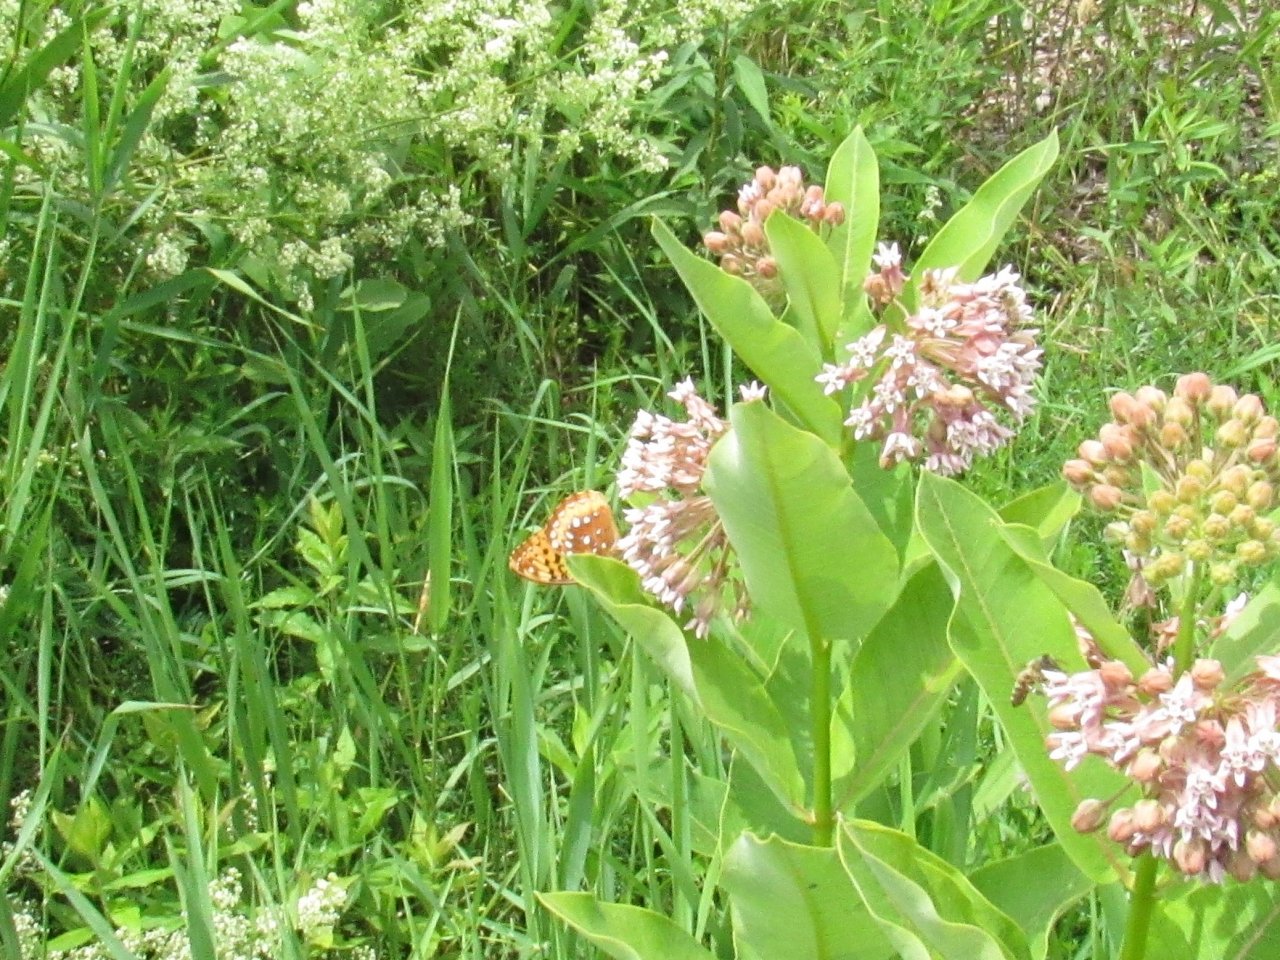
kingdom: Animalia
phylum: Arthropoda
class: Insecta
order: Lepidoptera
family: Nymphalidae
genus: Speyeria
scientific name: Speyeria cybele
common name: Great Spangled Fritillary
